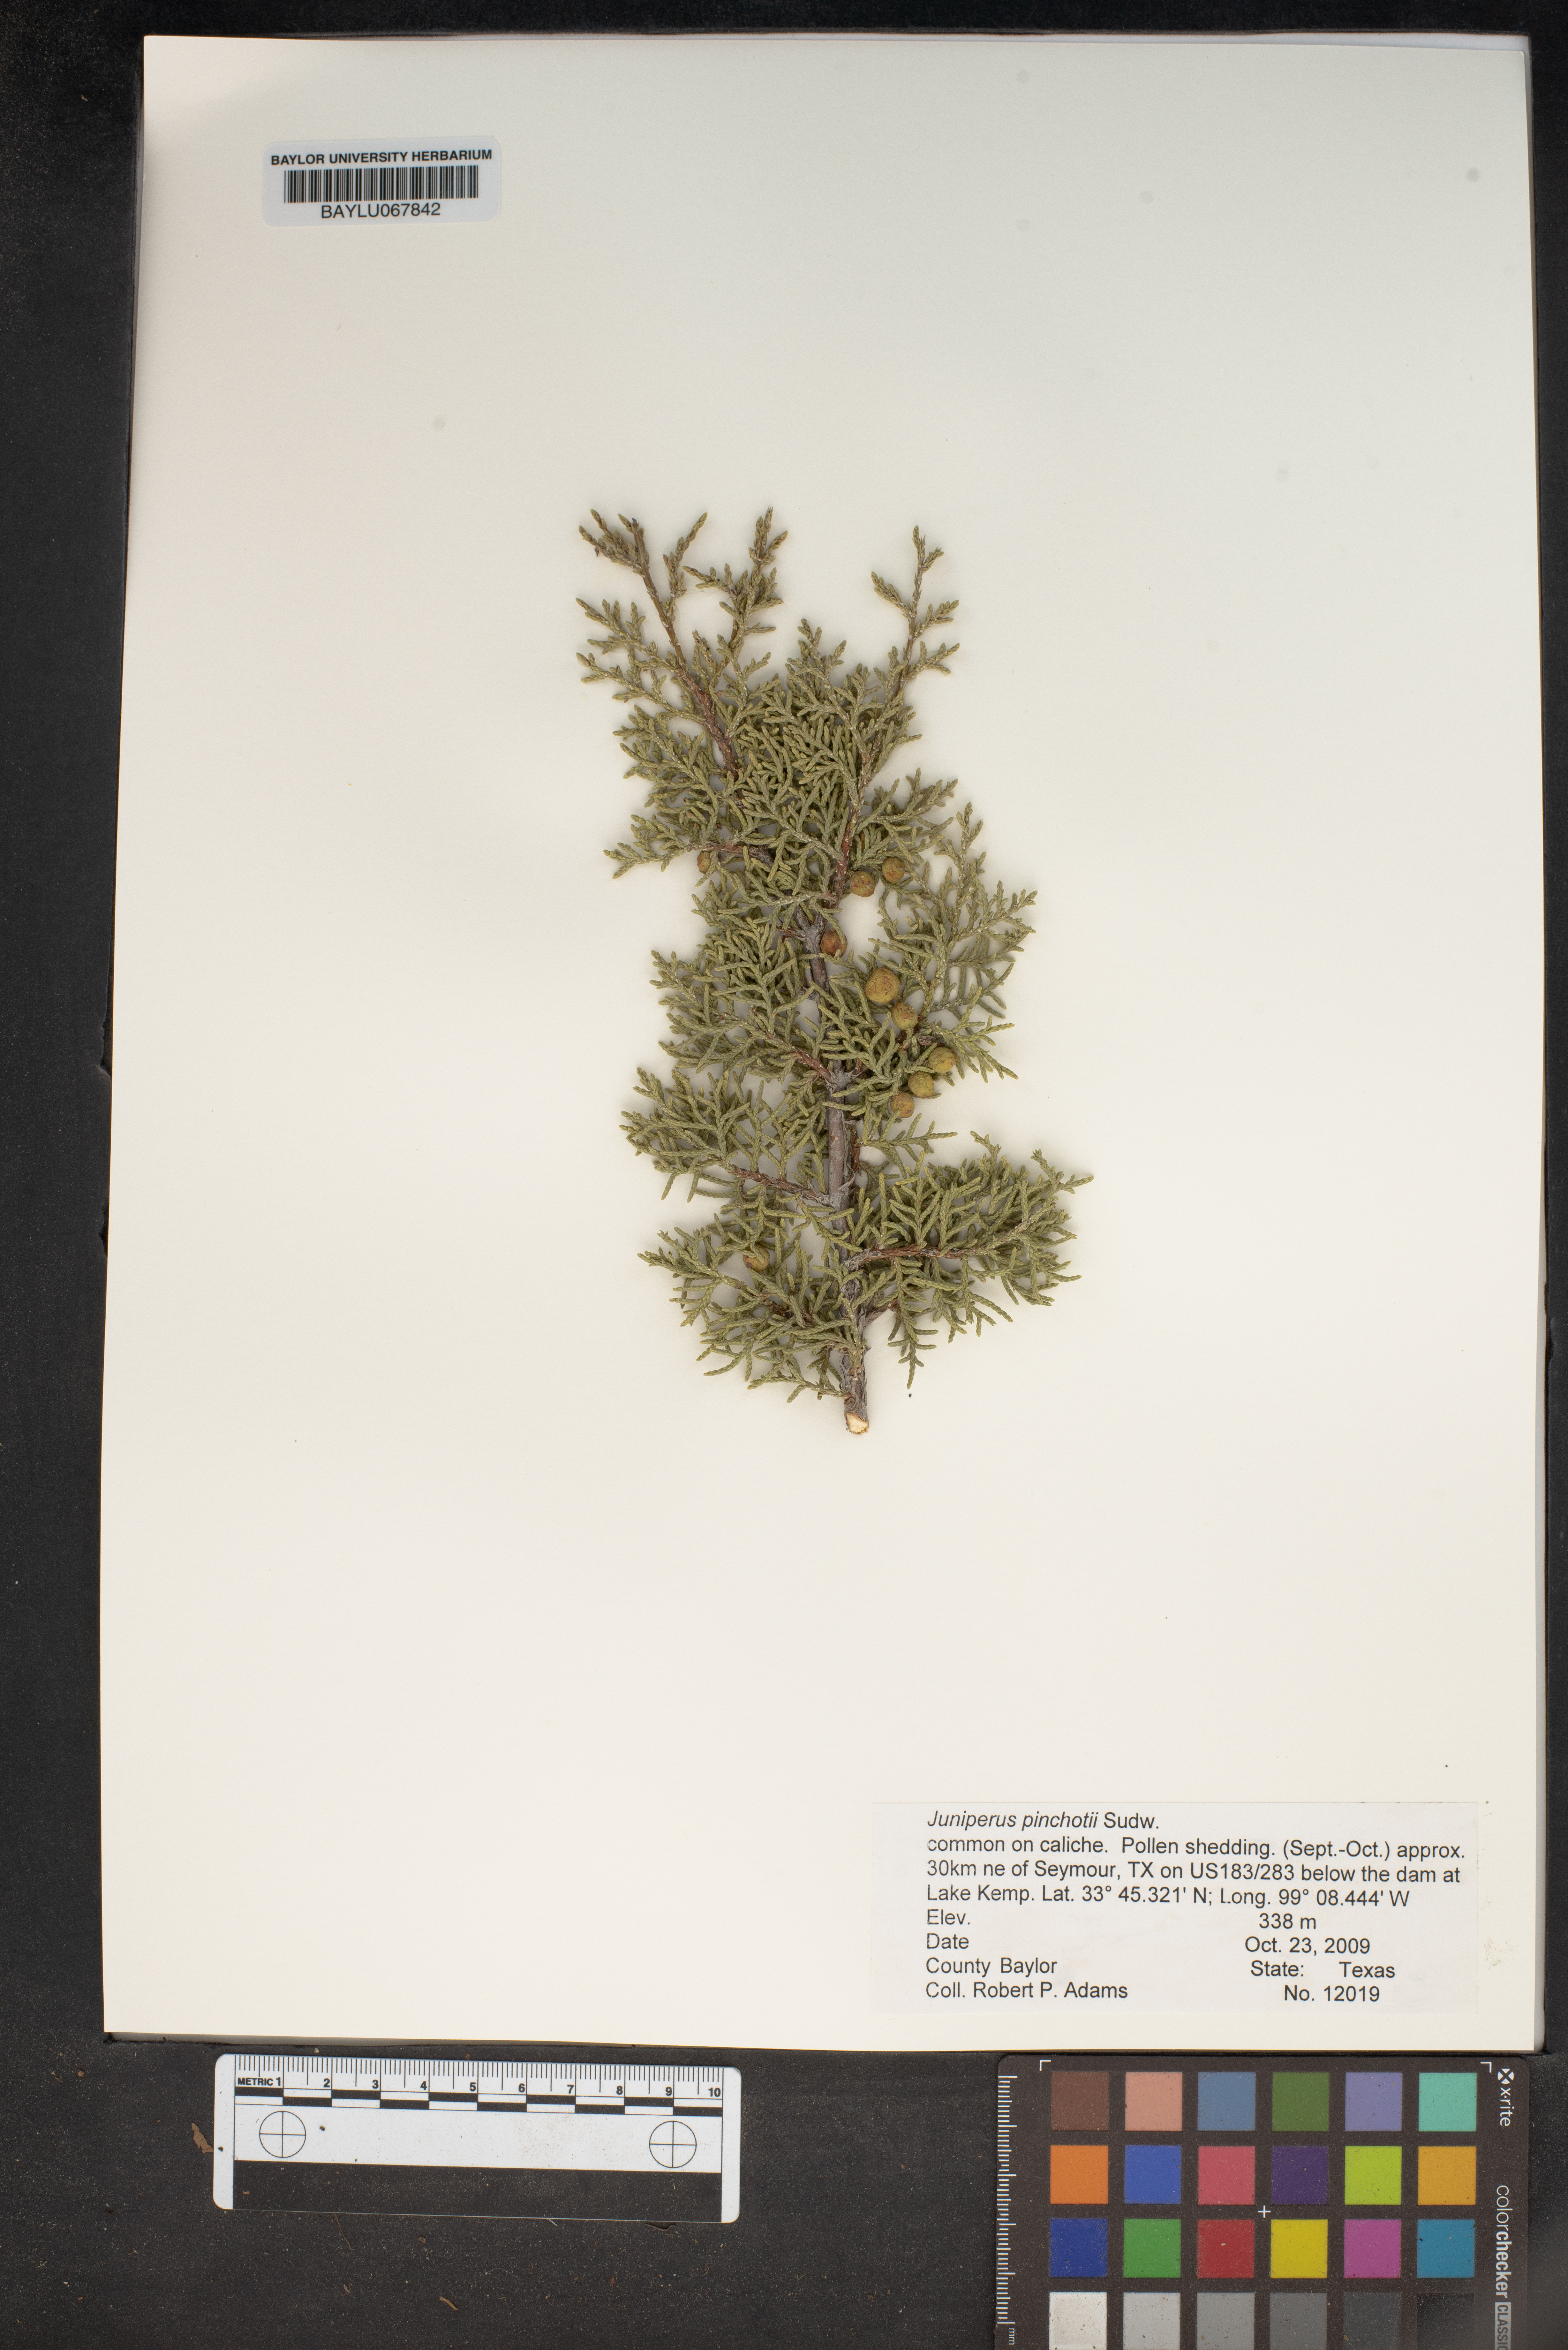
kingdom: Plantae
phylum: Tracheophyta
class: Pinopsida
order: Pinales
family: Cupressaceae
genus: Juniperus
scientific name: Juniperus pinchotii
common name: Pinchot juniper
